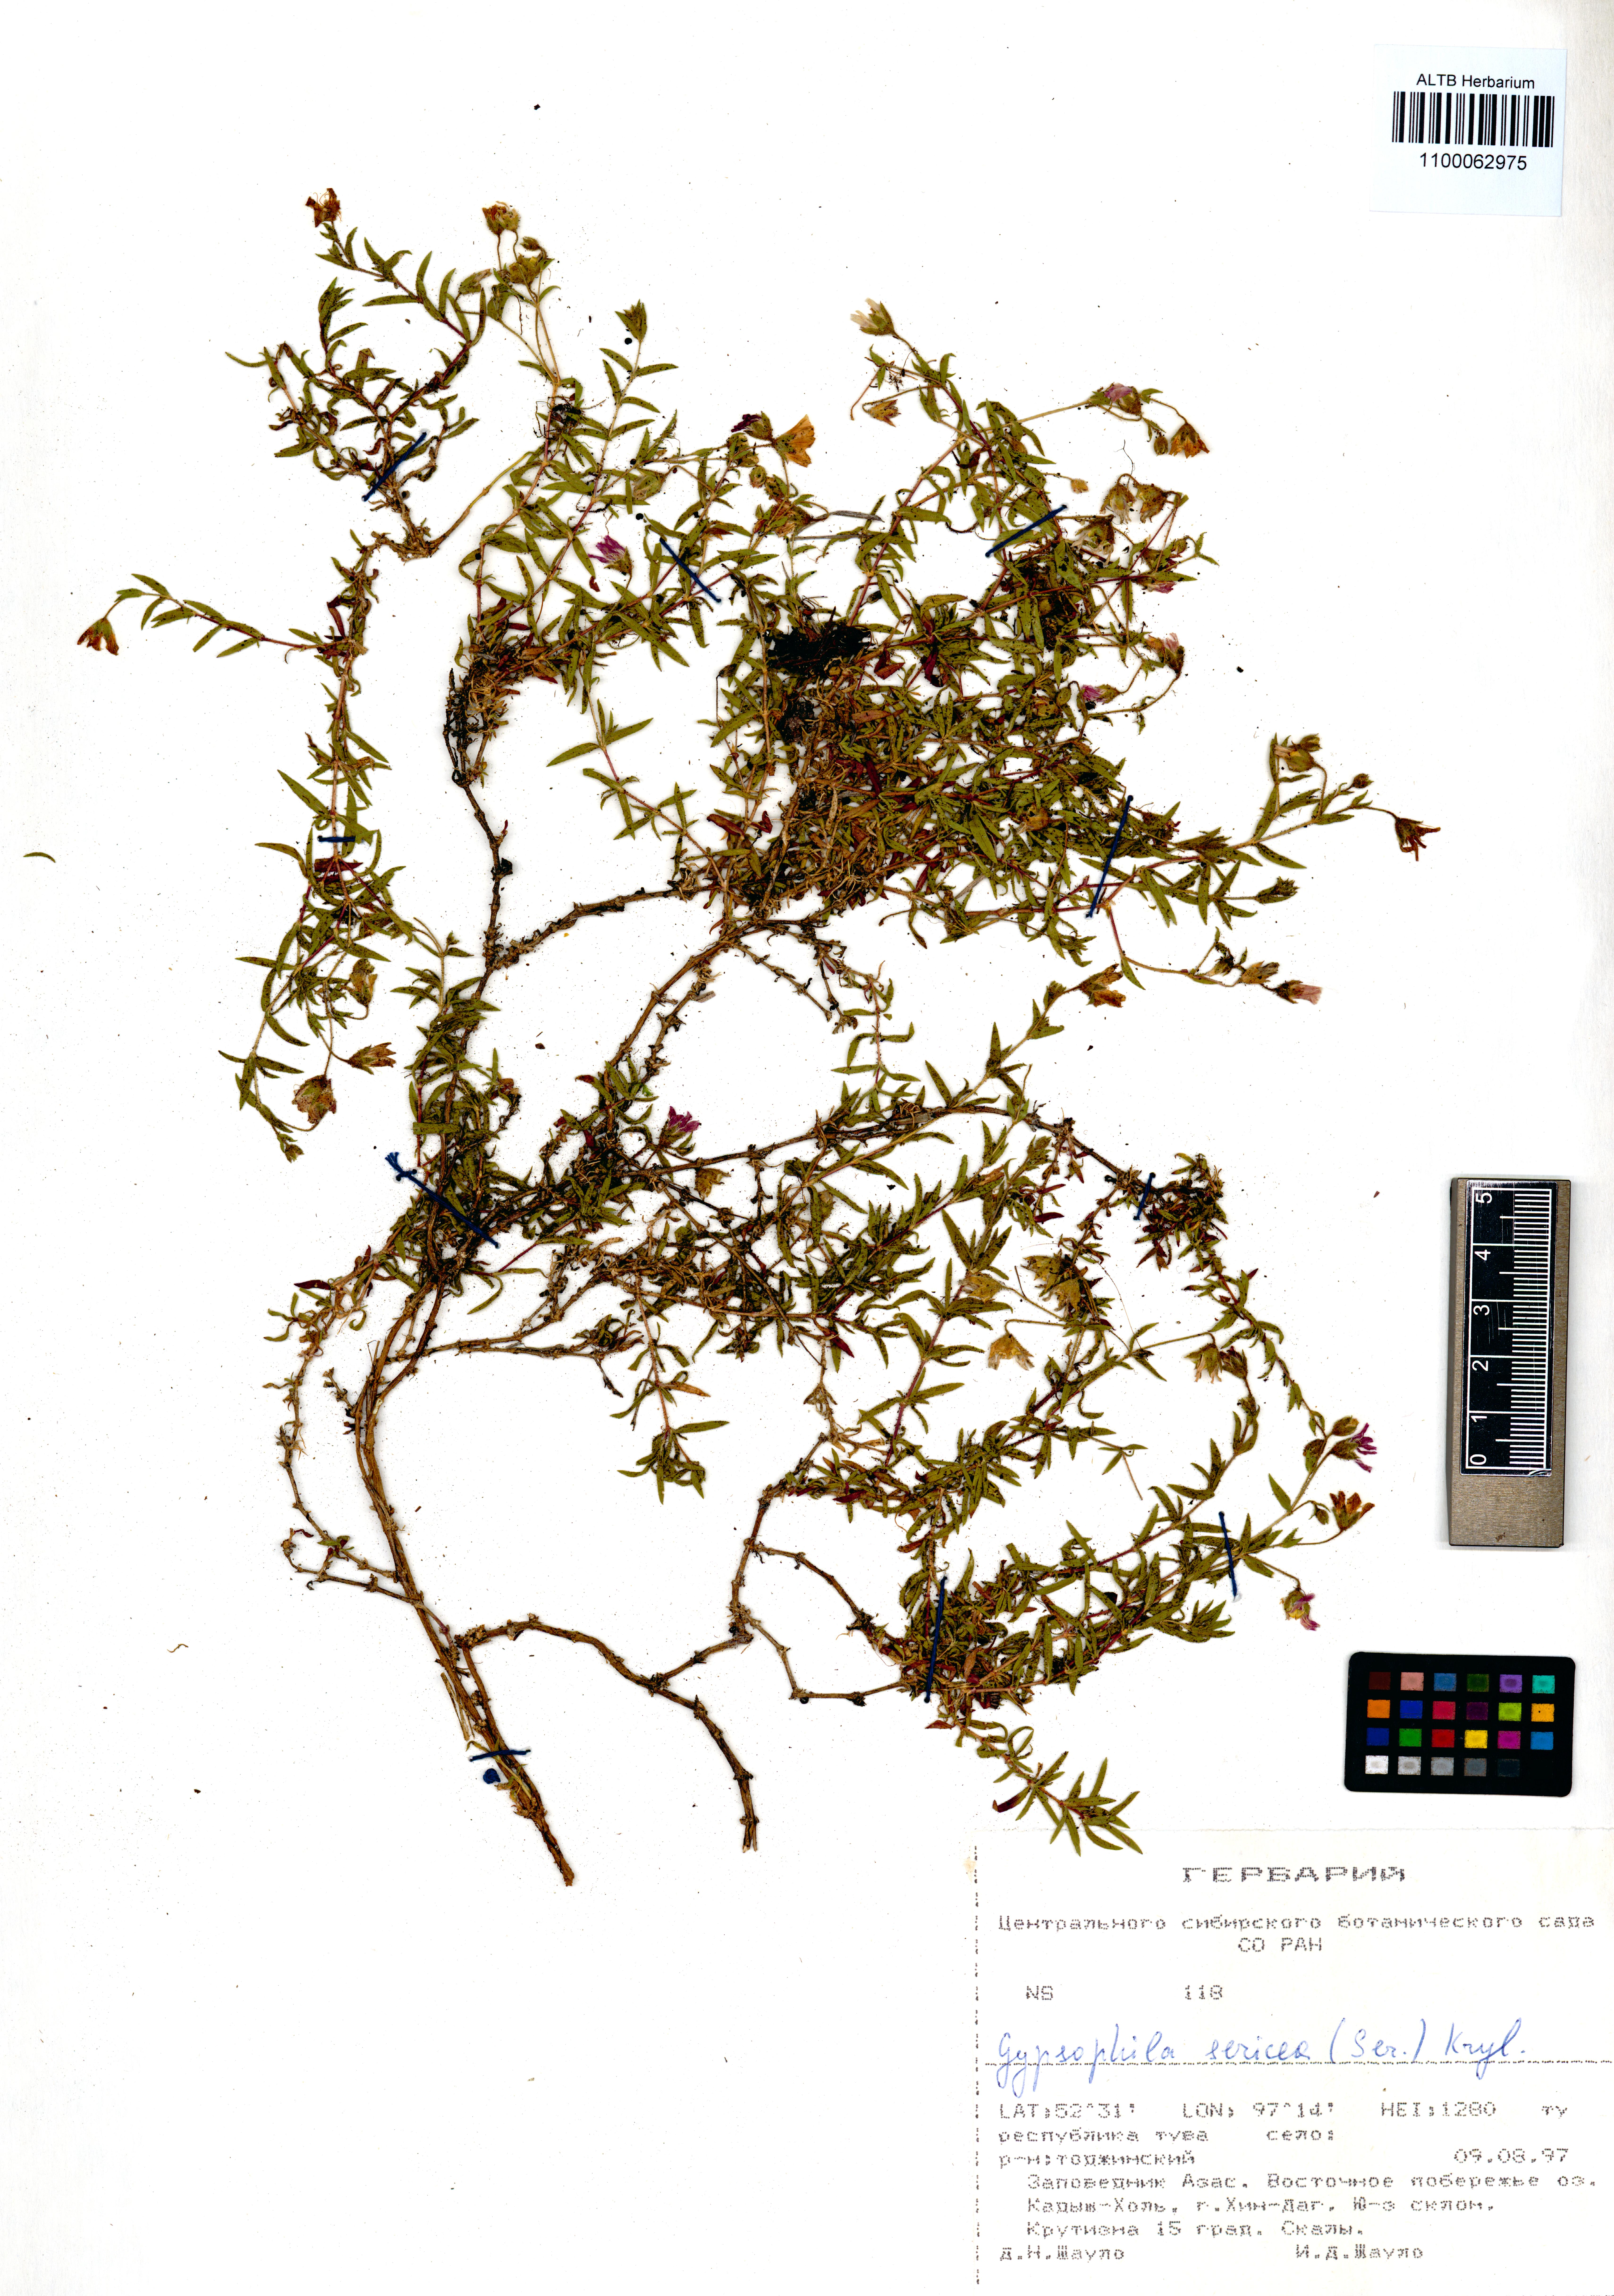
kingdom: Plantae
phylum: Tracheophyta
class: Magnoliopsida
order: Caryophyllales
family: Caryophyllaceae
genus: Heterochroa
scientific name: Heterochroa petraea
